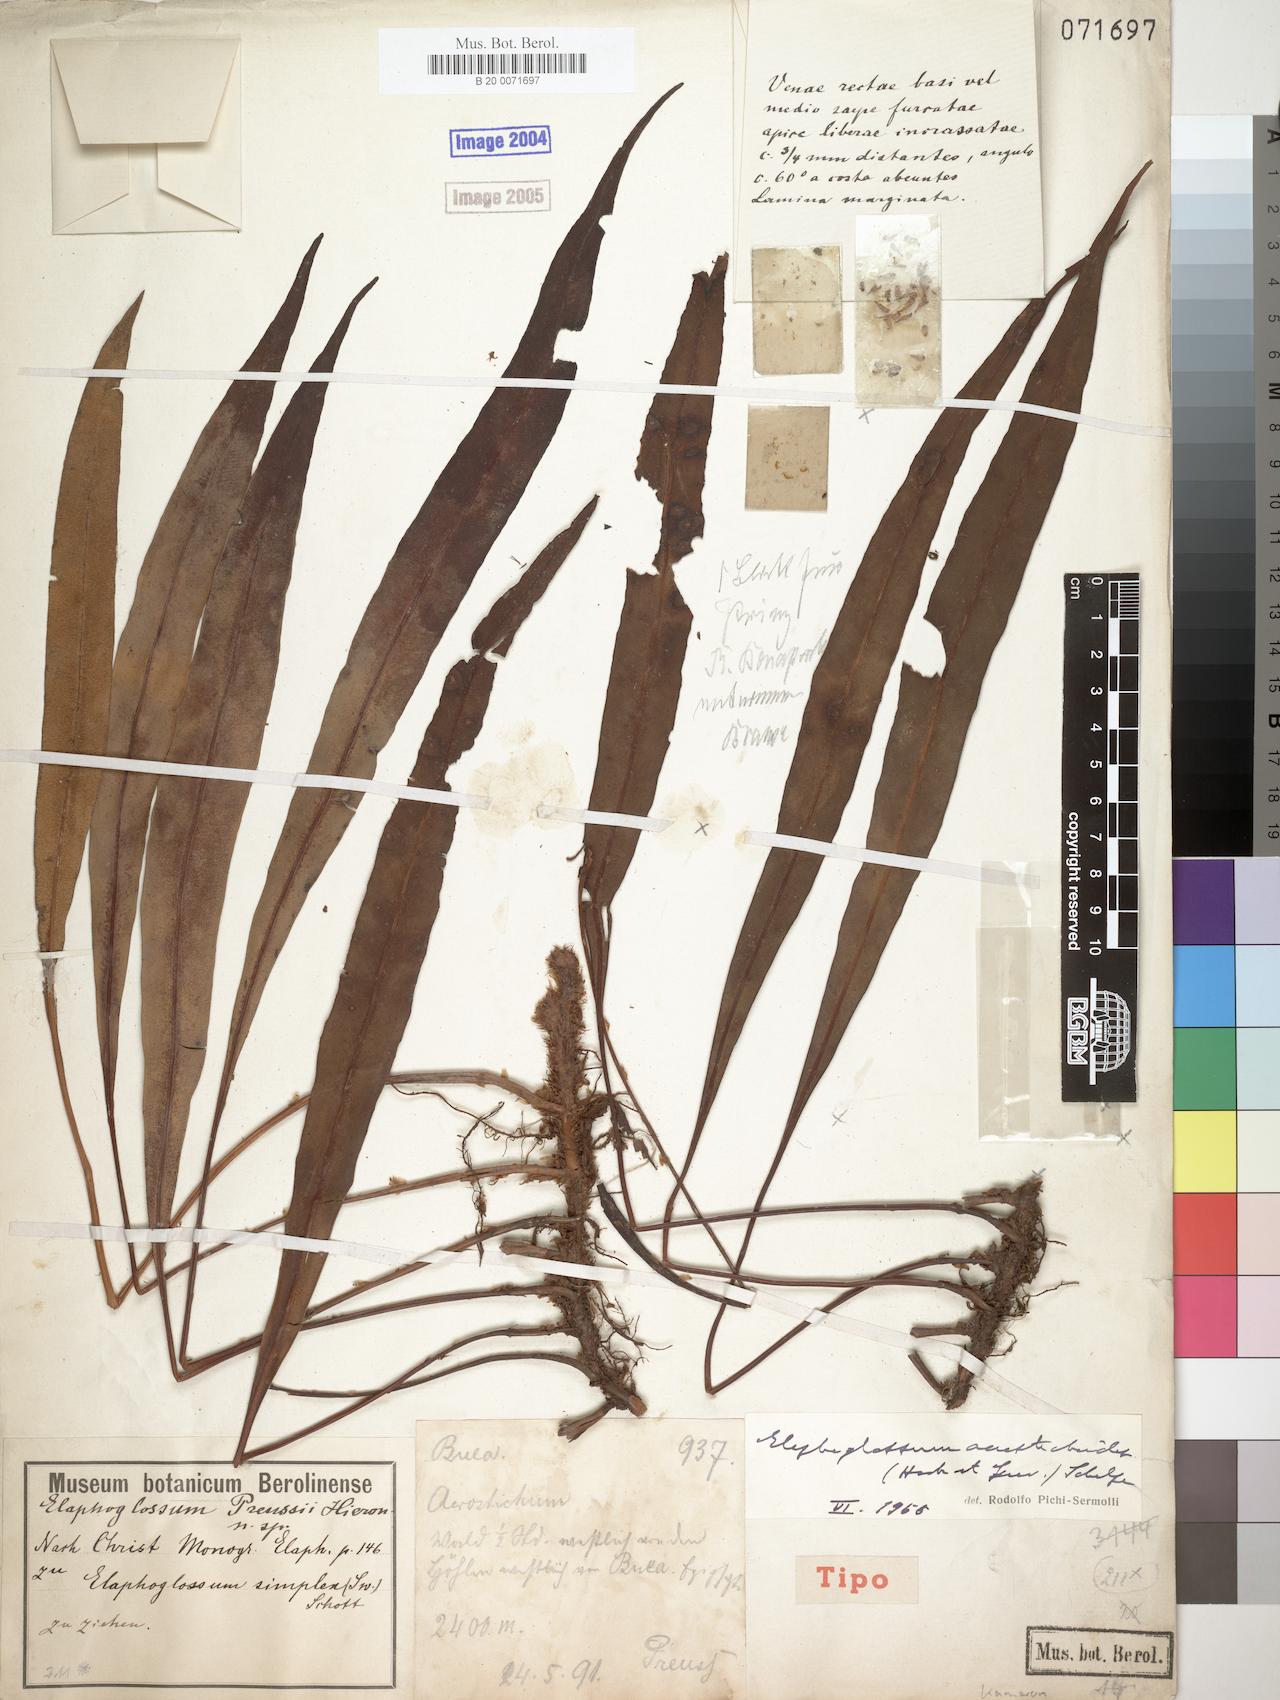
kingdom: Plantae
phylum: Tracheophyta
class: Polypodiopsida
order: Polypodiales
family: Dryopteridaceae
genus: Elaphoglossum
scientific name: Elaphoglossum acrostichoides
